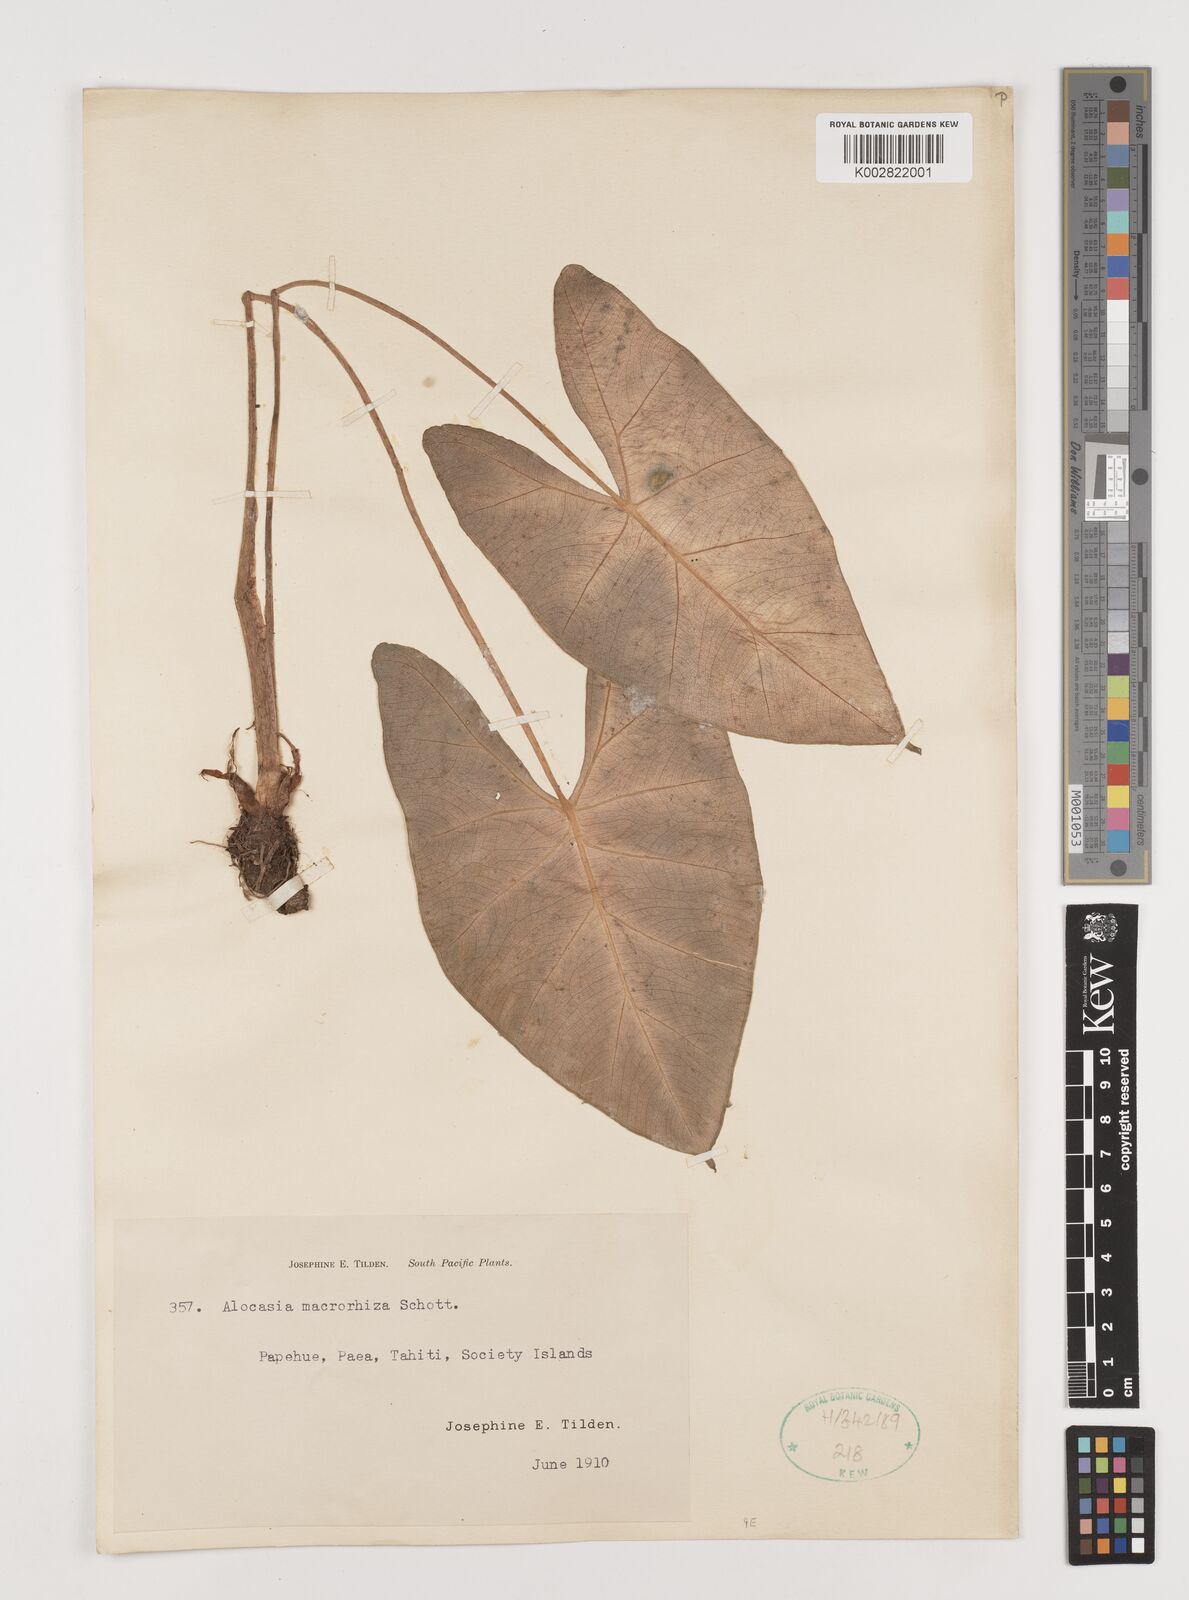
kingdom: Plantae
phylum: Tracheophyta
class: Liliopsida
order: Alismatales
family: Araceae
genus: Alocasia
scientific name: Alocasia macrorrhizos
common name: Giant taro
